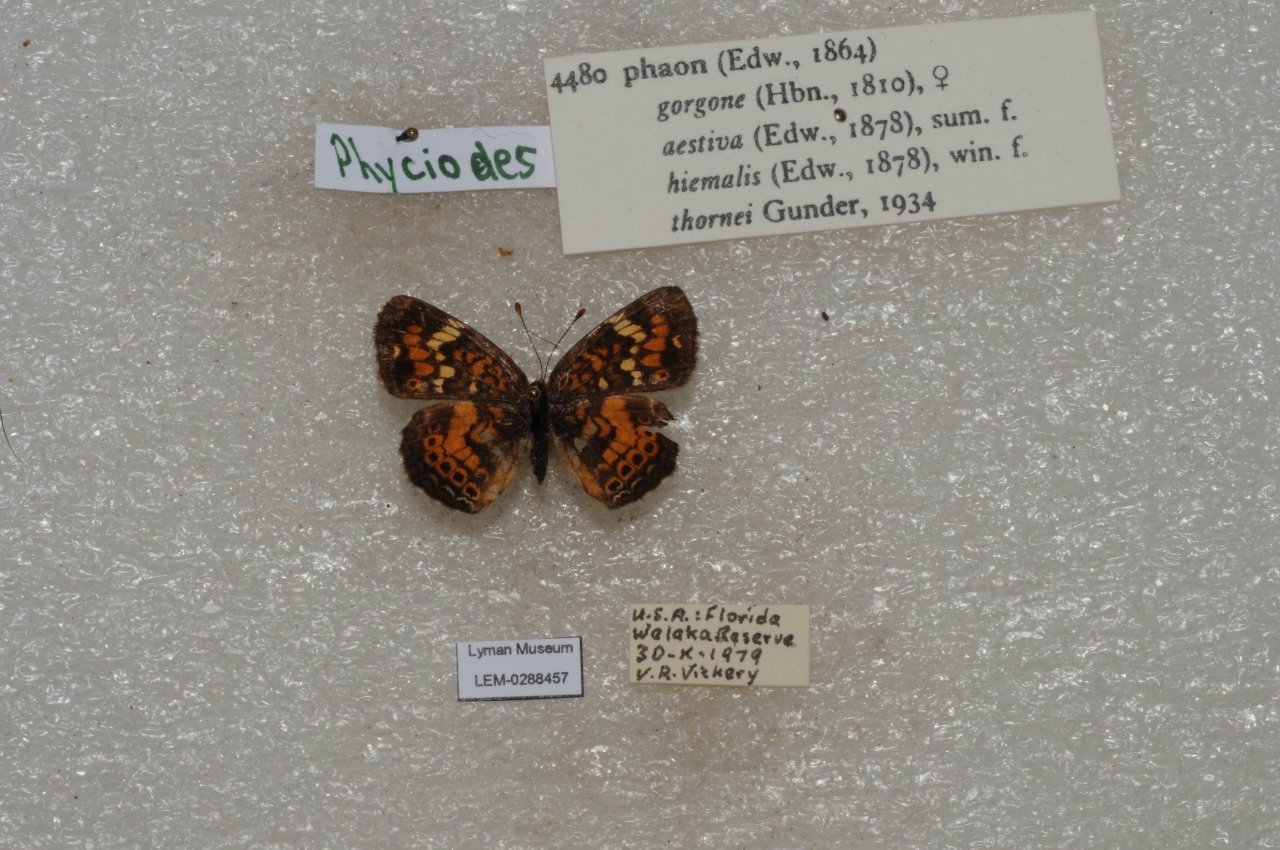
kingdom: Animalia
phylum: Arthropoda
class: Insecta
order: Lepidoptera
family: Nymphalidae
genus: Phyciodes
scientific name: Phyciodes phaon
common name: Phaon Crescent
